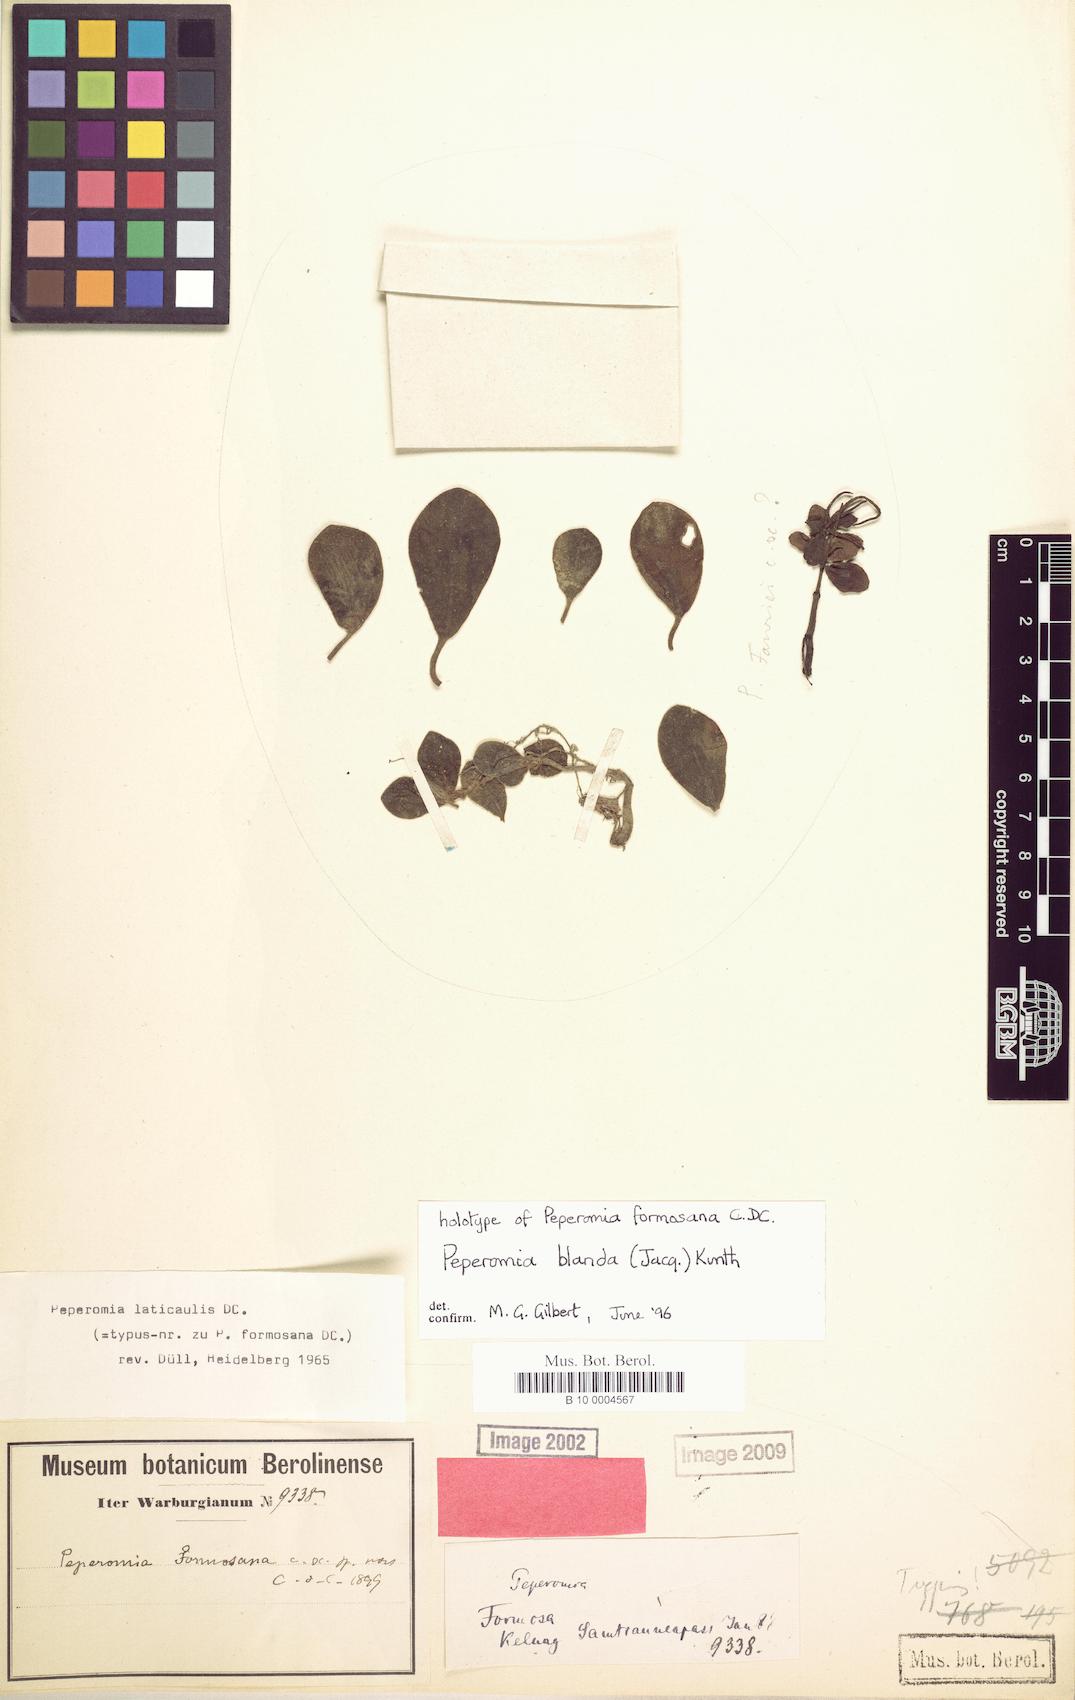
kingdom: Plantae
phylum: Tracheophyta
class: Magnoliopsida
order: Piperales
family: Piperaceae
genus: Peperomia
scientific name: Peperomia blanda
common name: Arid-land peperomia
